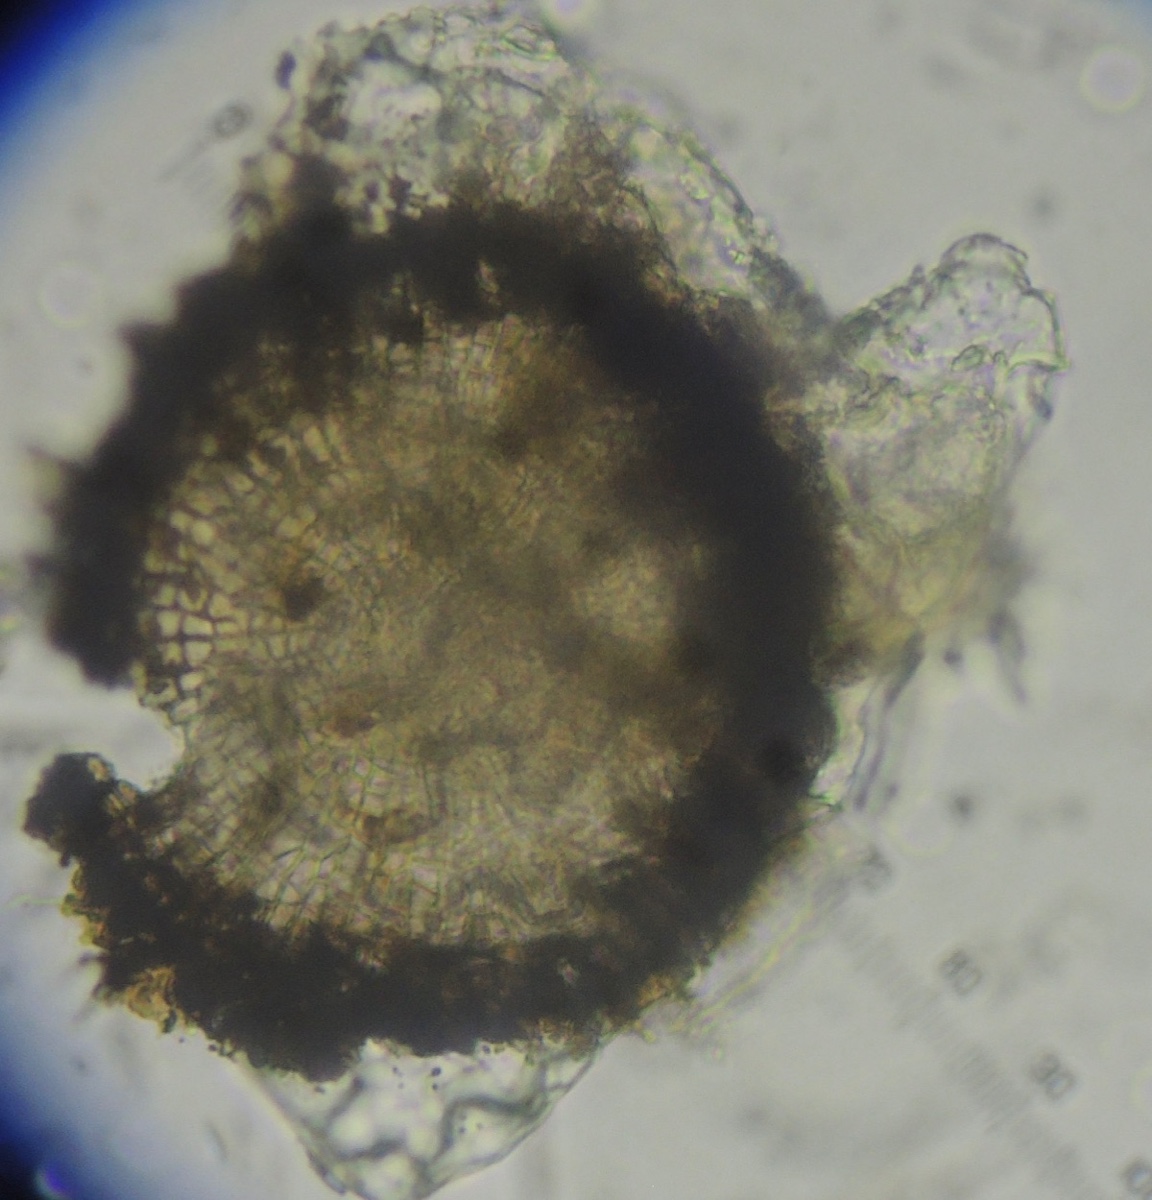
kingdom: Fungi
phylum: Ascomycota
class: Dothideomycetes
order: Microthyriales
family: Microthyriaceae
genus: Microthyrium
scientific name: Microthyrium ciliatum
